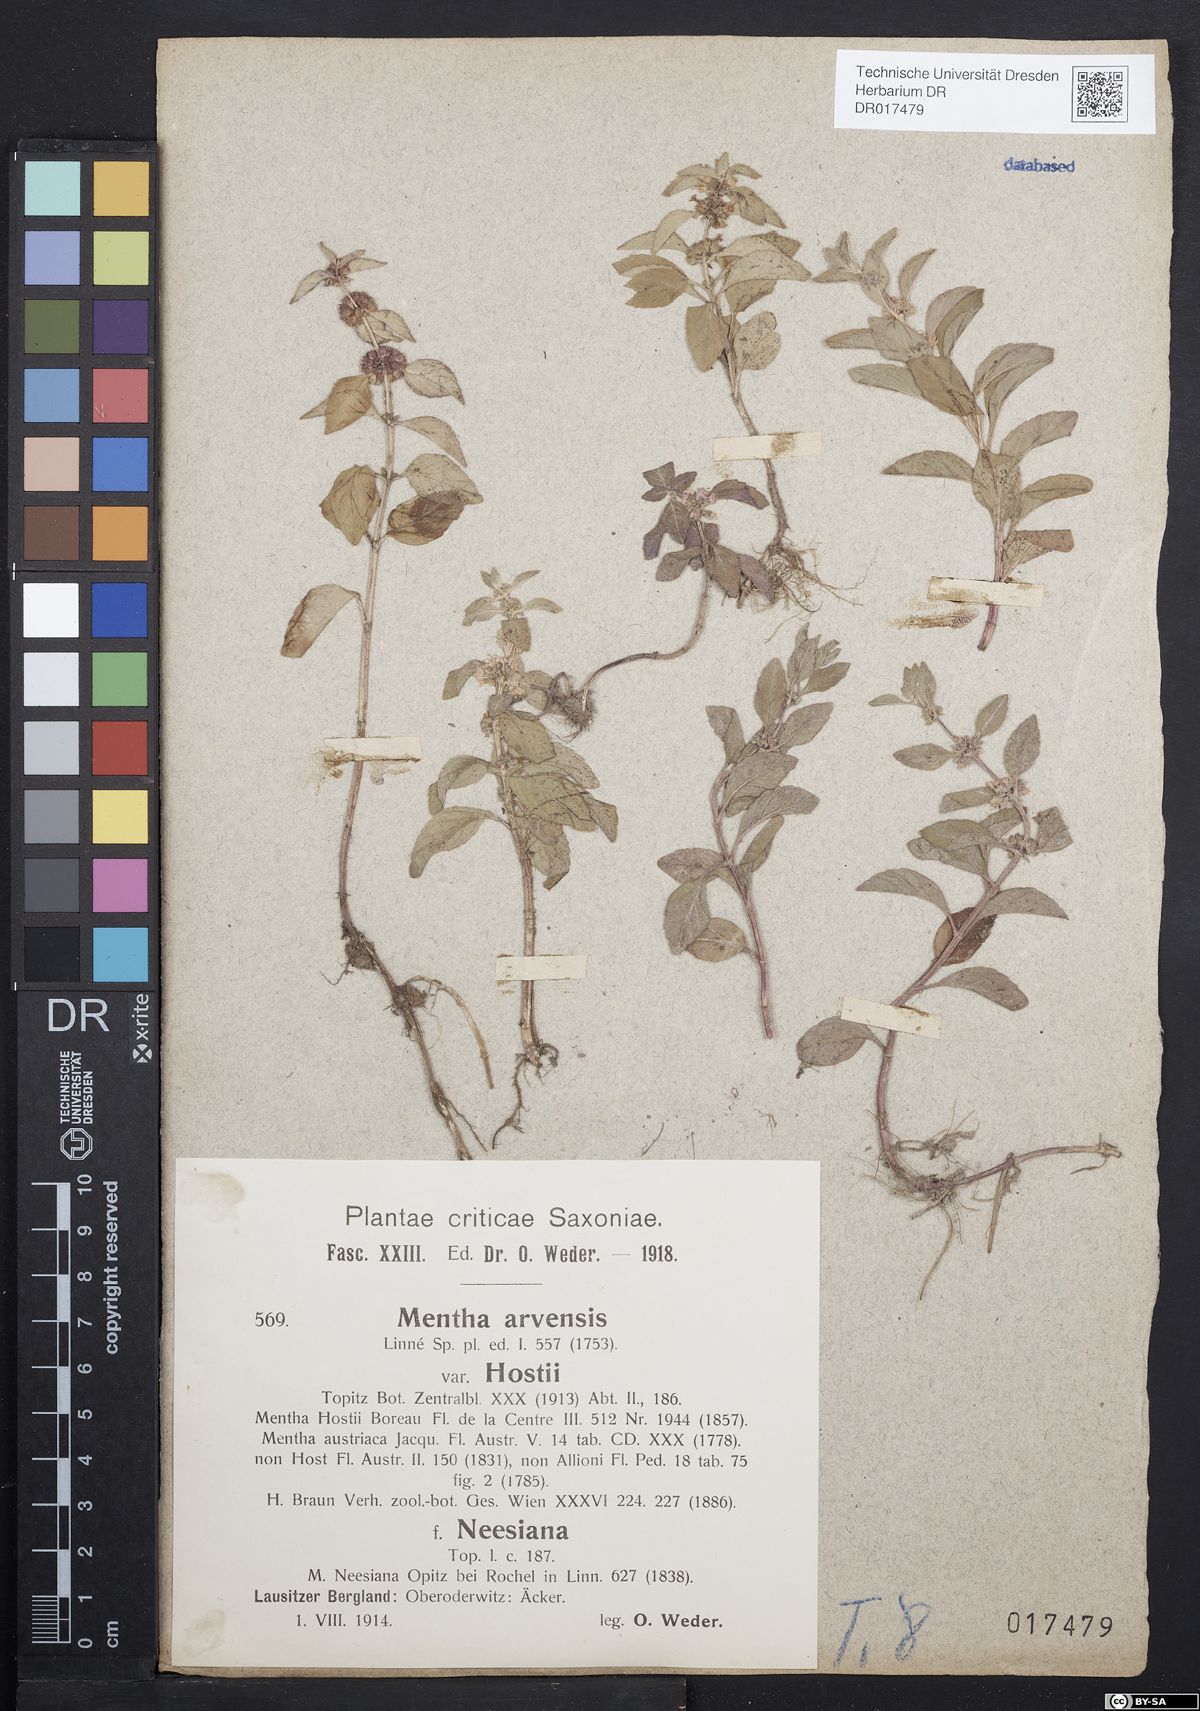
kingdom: Plantae
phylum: Tracheophyta
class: Magnoliopsida
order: Lamiales
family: Lamiaceae
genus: Mentha
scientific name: Mentha arvensis
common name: Corn mint
